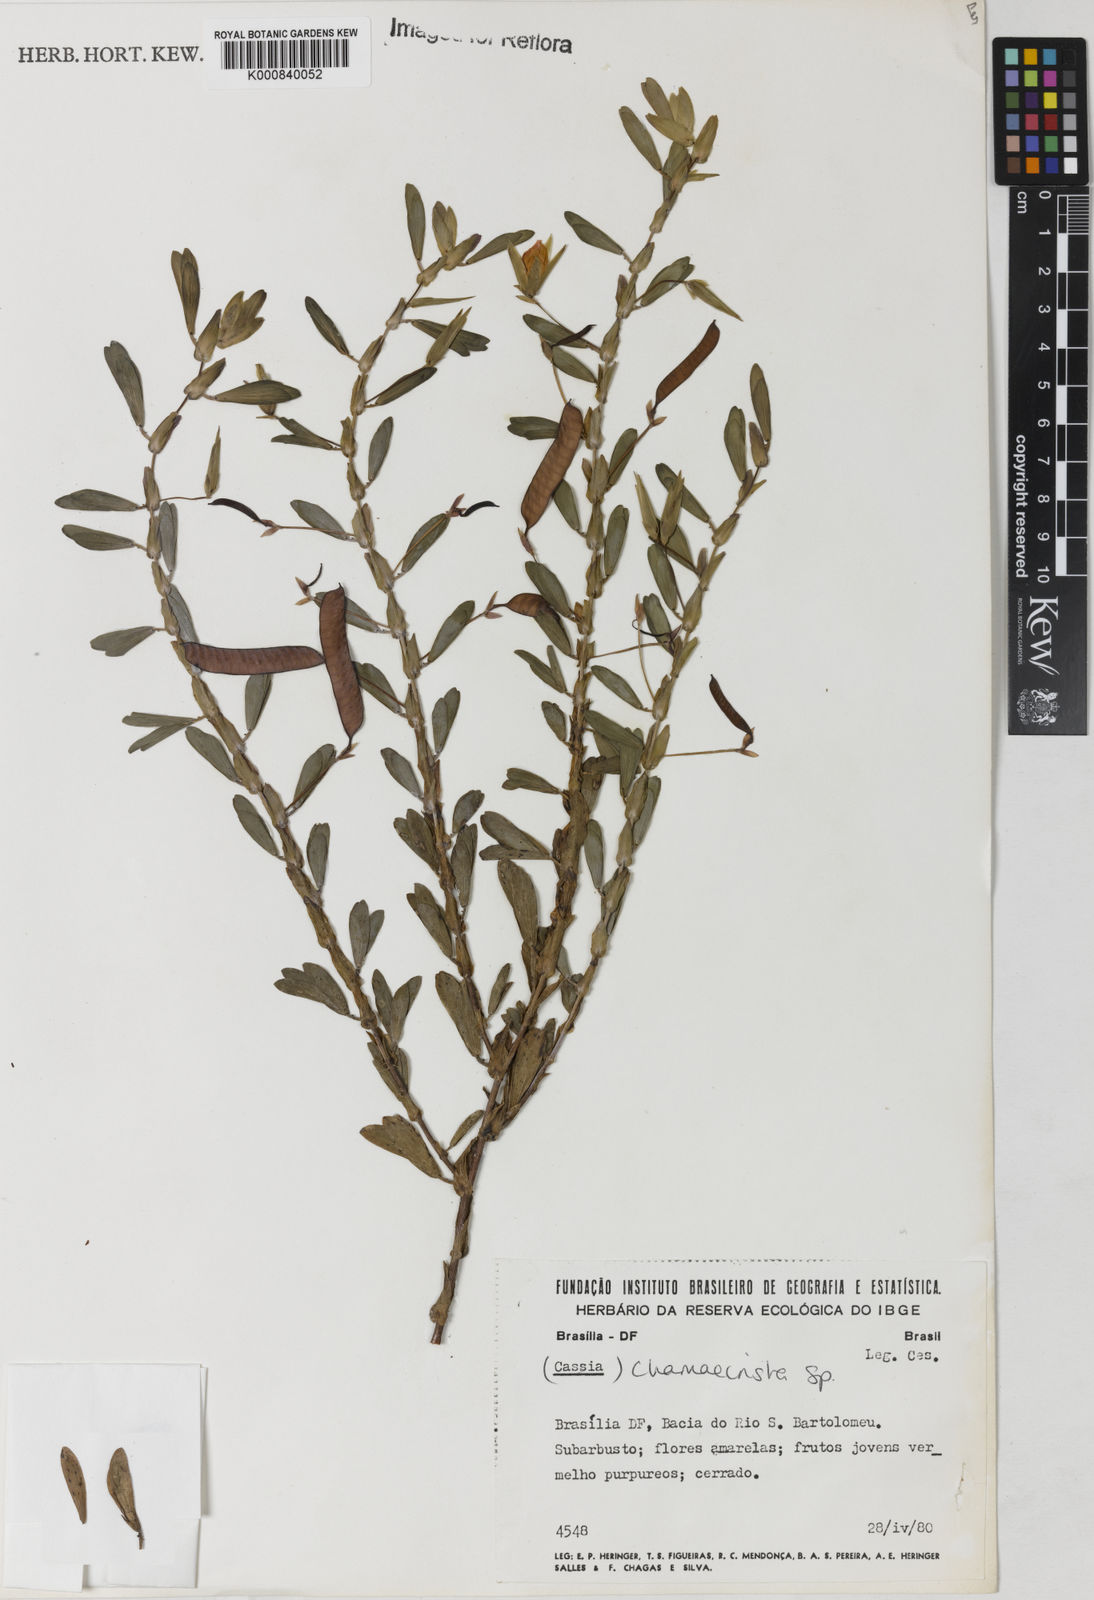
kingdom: Plantae
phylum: Tracheophyta
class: Magnoliopsida
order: Fabales
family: Fabaceae
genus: Chamaecrista
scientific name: Chamaecrista langsdorffii
